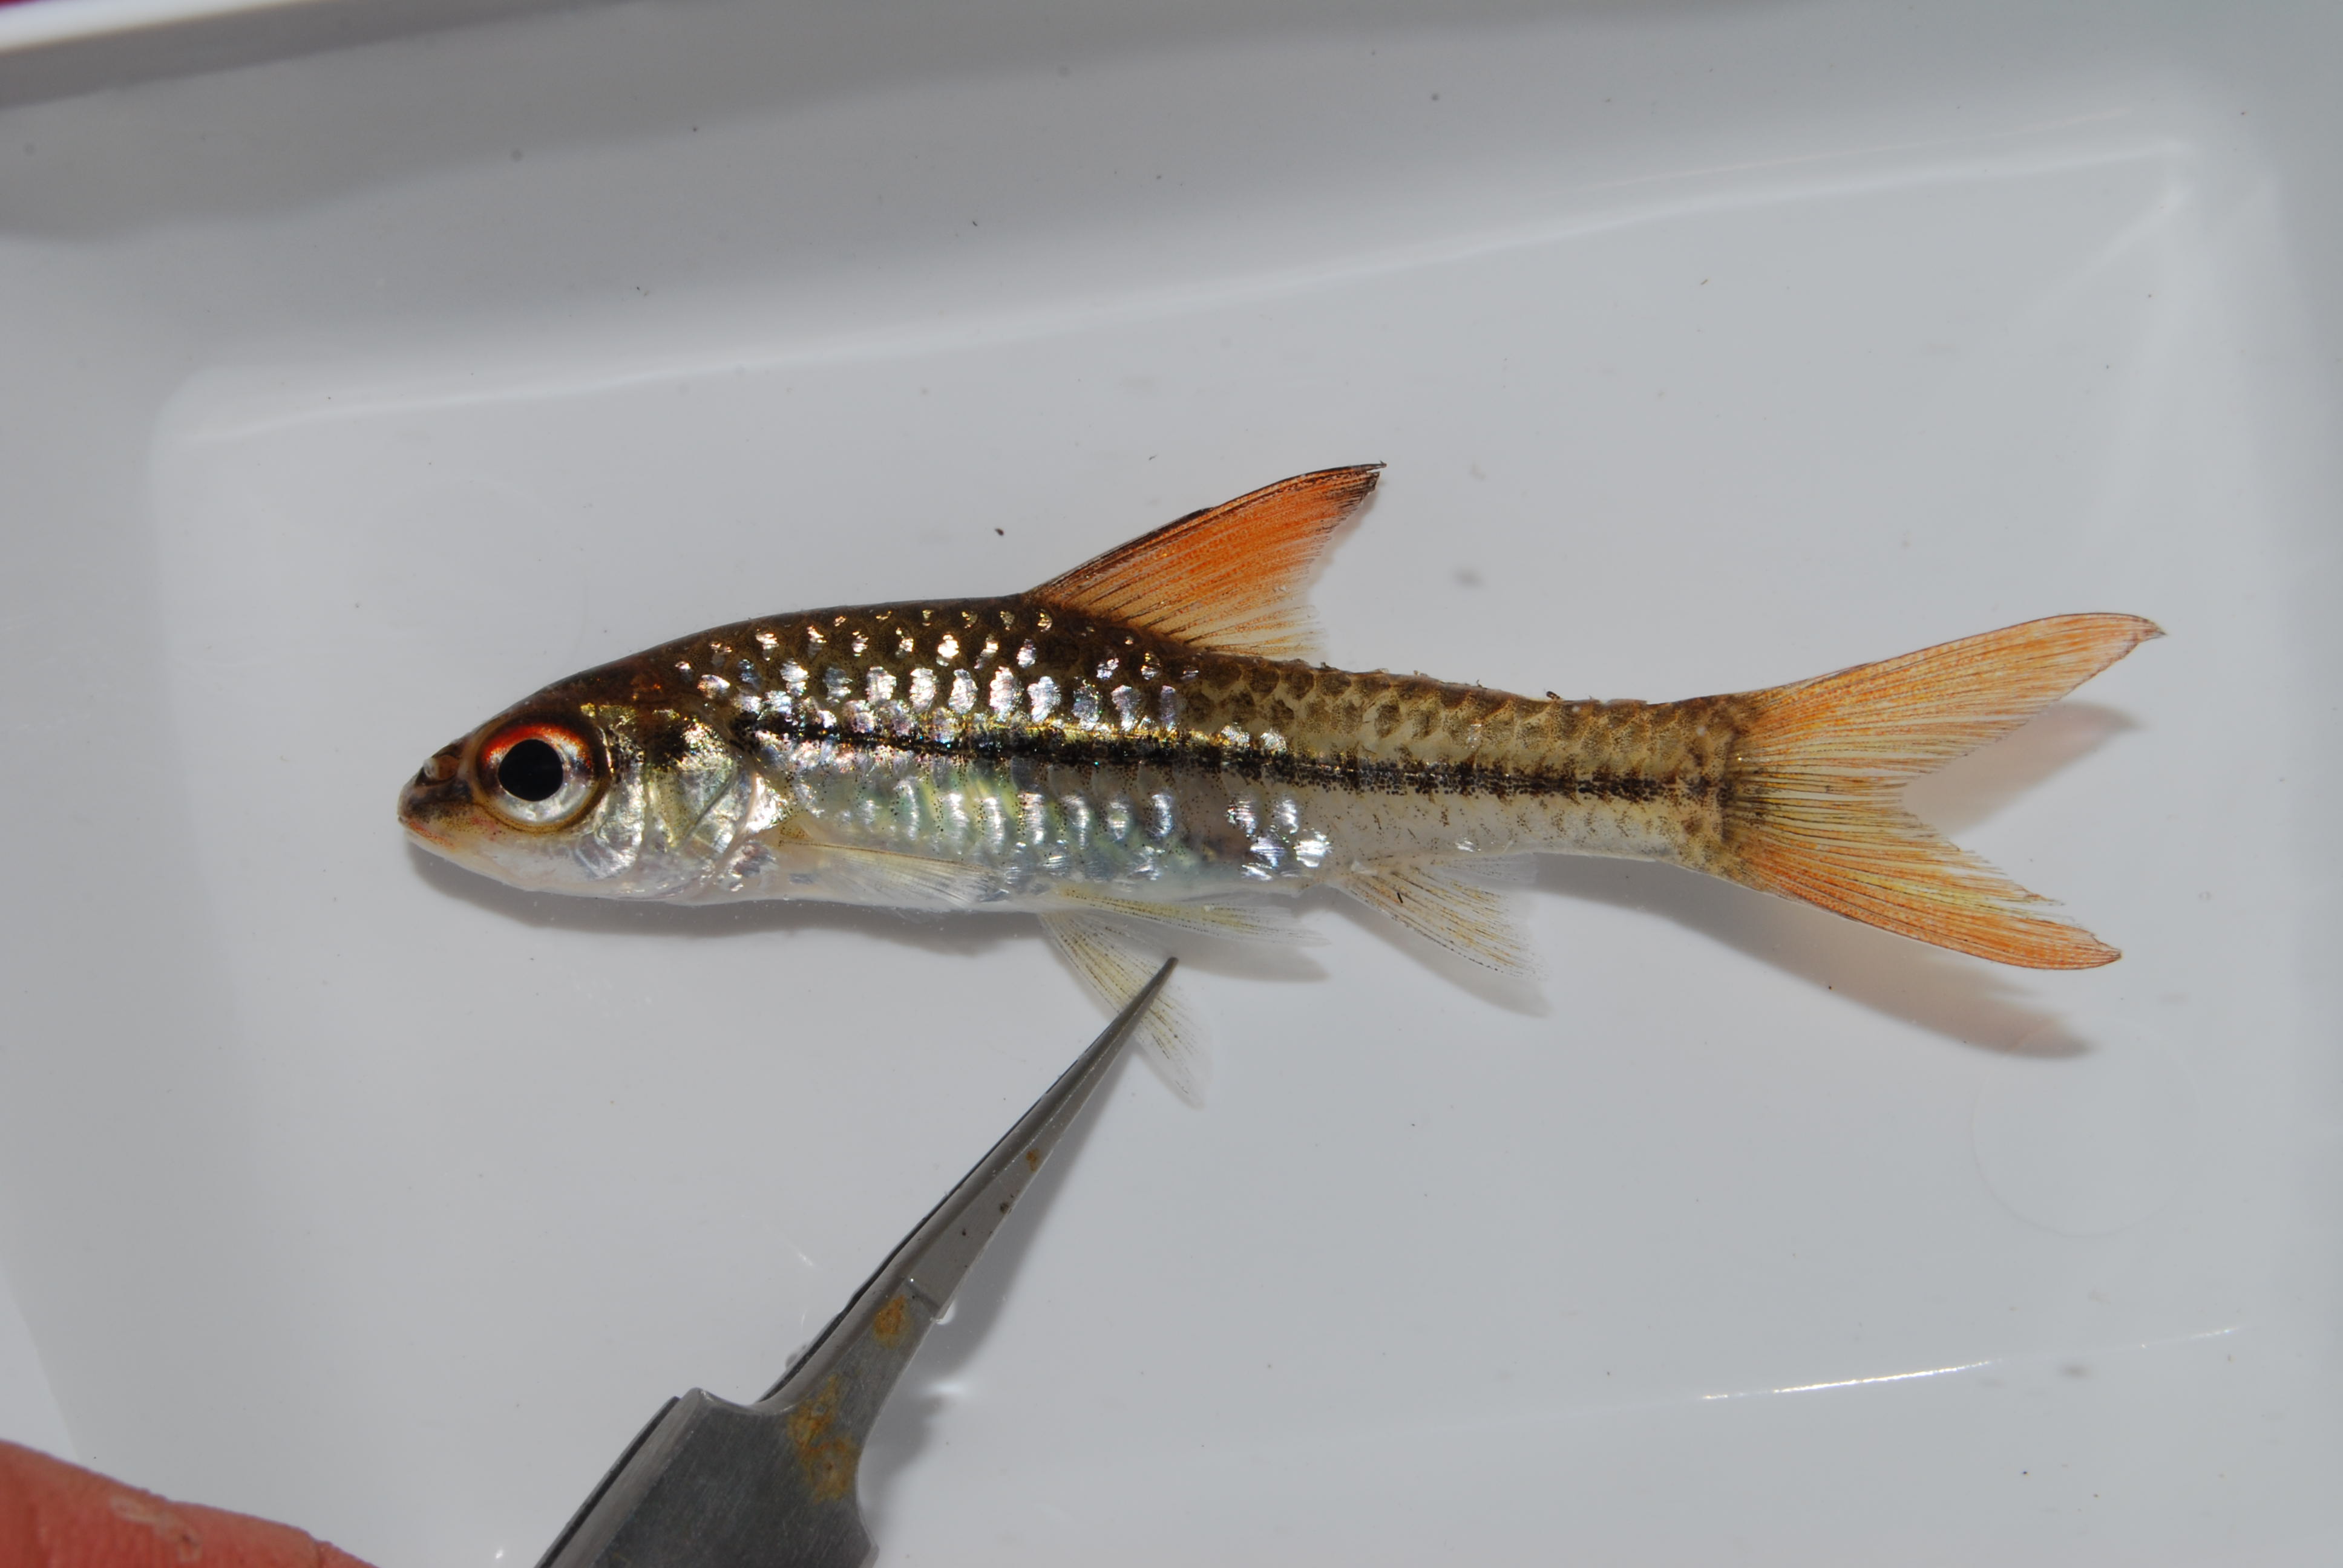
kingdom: Animalia
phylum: Chordata
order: Cypriniformes
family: Cyprinidae
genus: Enteromius
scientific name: Enteromius radiatus
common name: Beira barb
